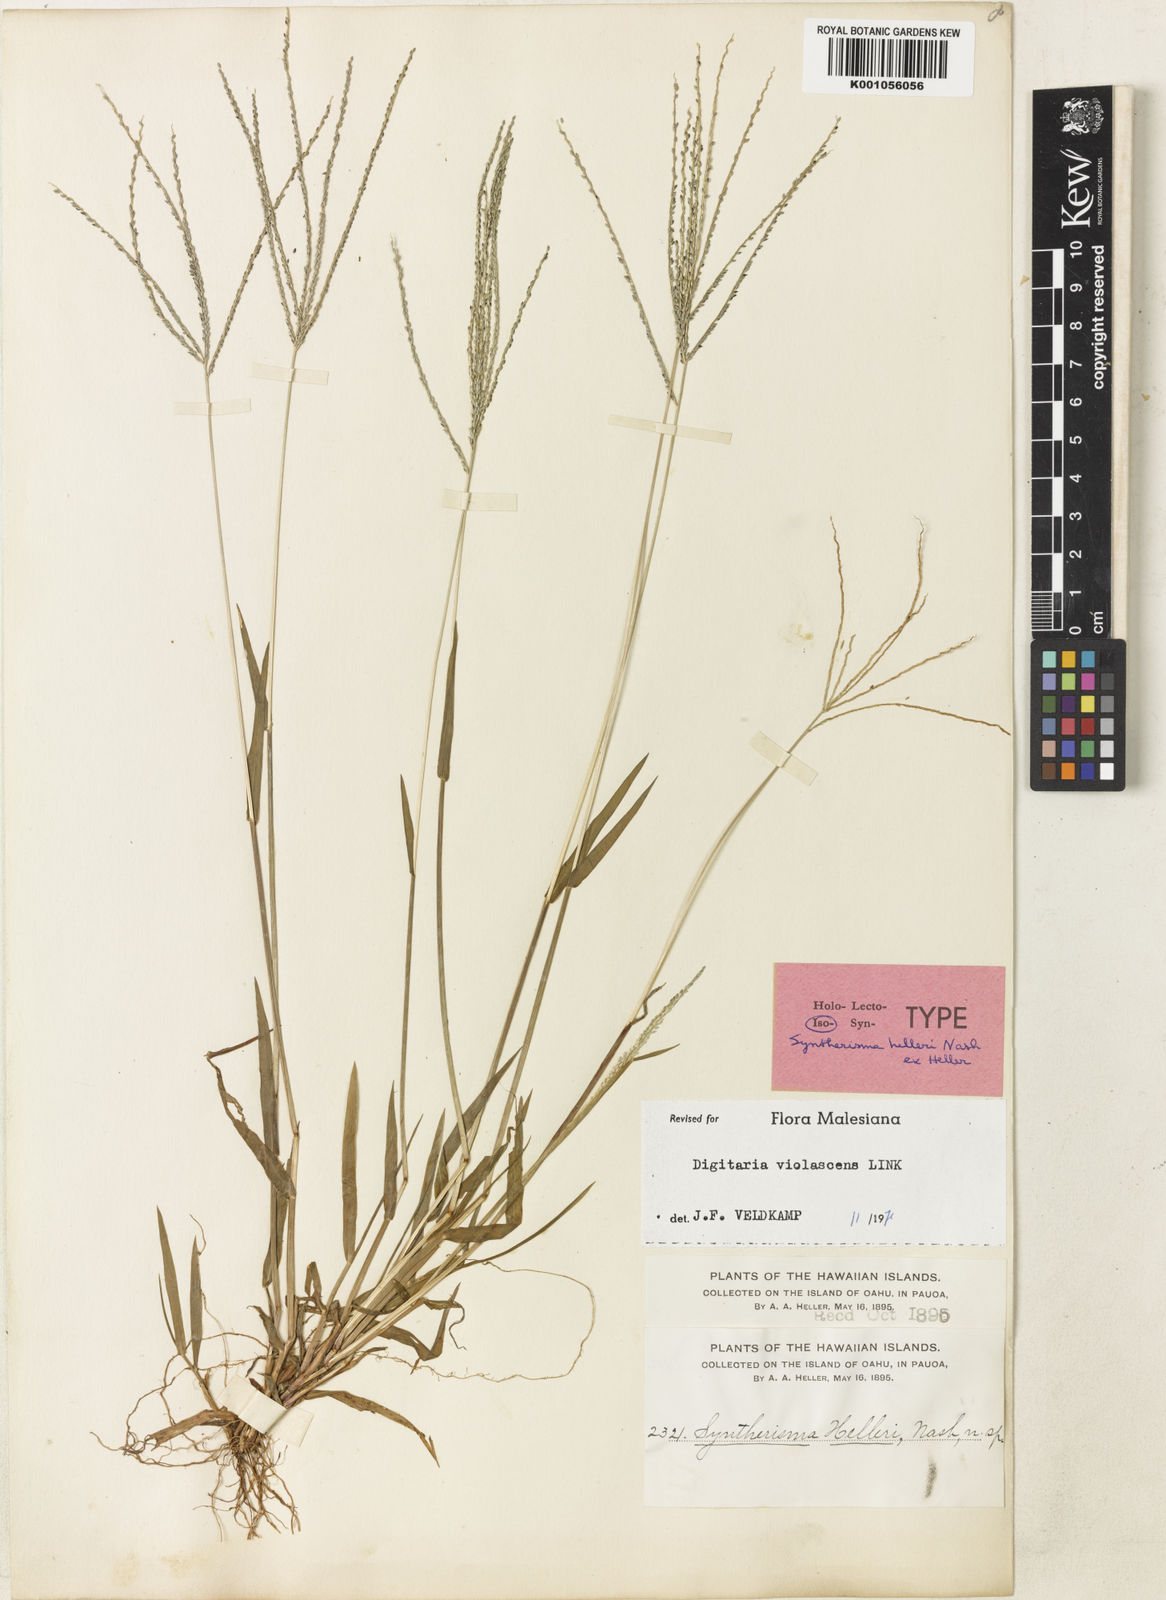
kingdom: Plantae
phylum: Tracheophyta
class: Liliopsida
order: Poales
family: Poaceae
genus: Digitaria
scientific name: Digitaria violascens
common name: Violet crabgrass
